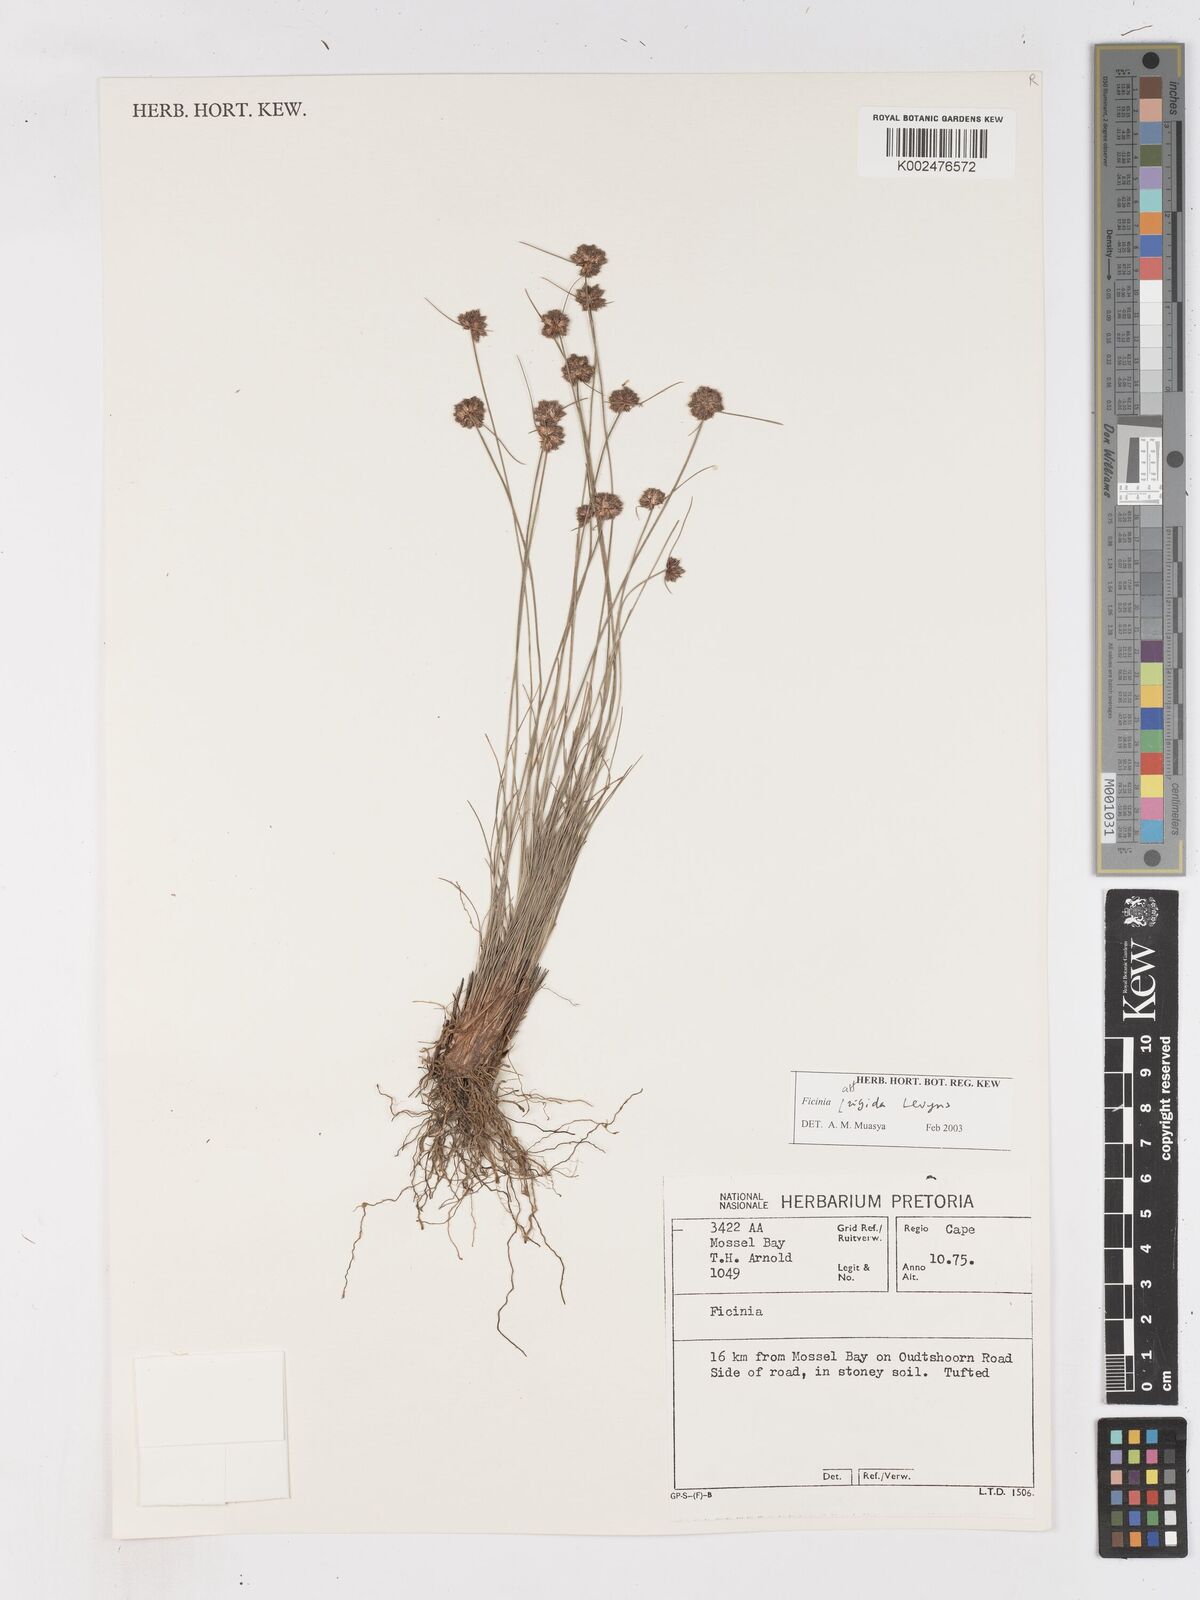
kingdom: Plantae
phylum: Tracheophyta
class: Liliopsida
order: Poales
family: Cyperaceae
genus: Ficinia
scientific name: Ficinia
